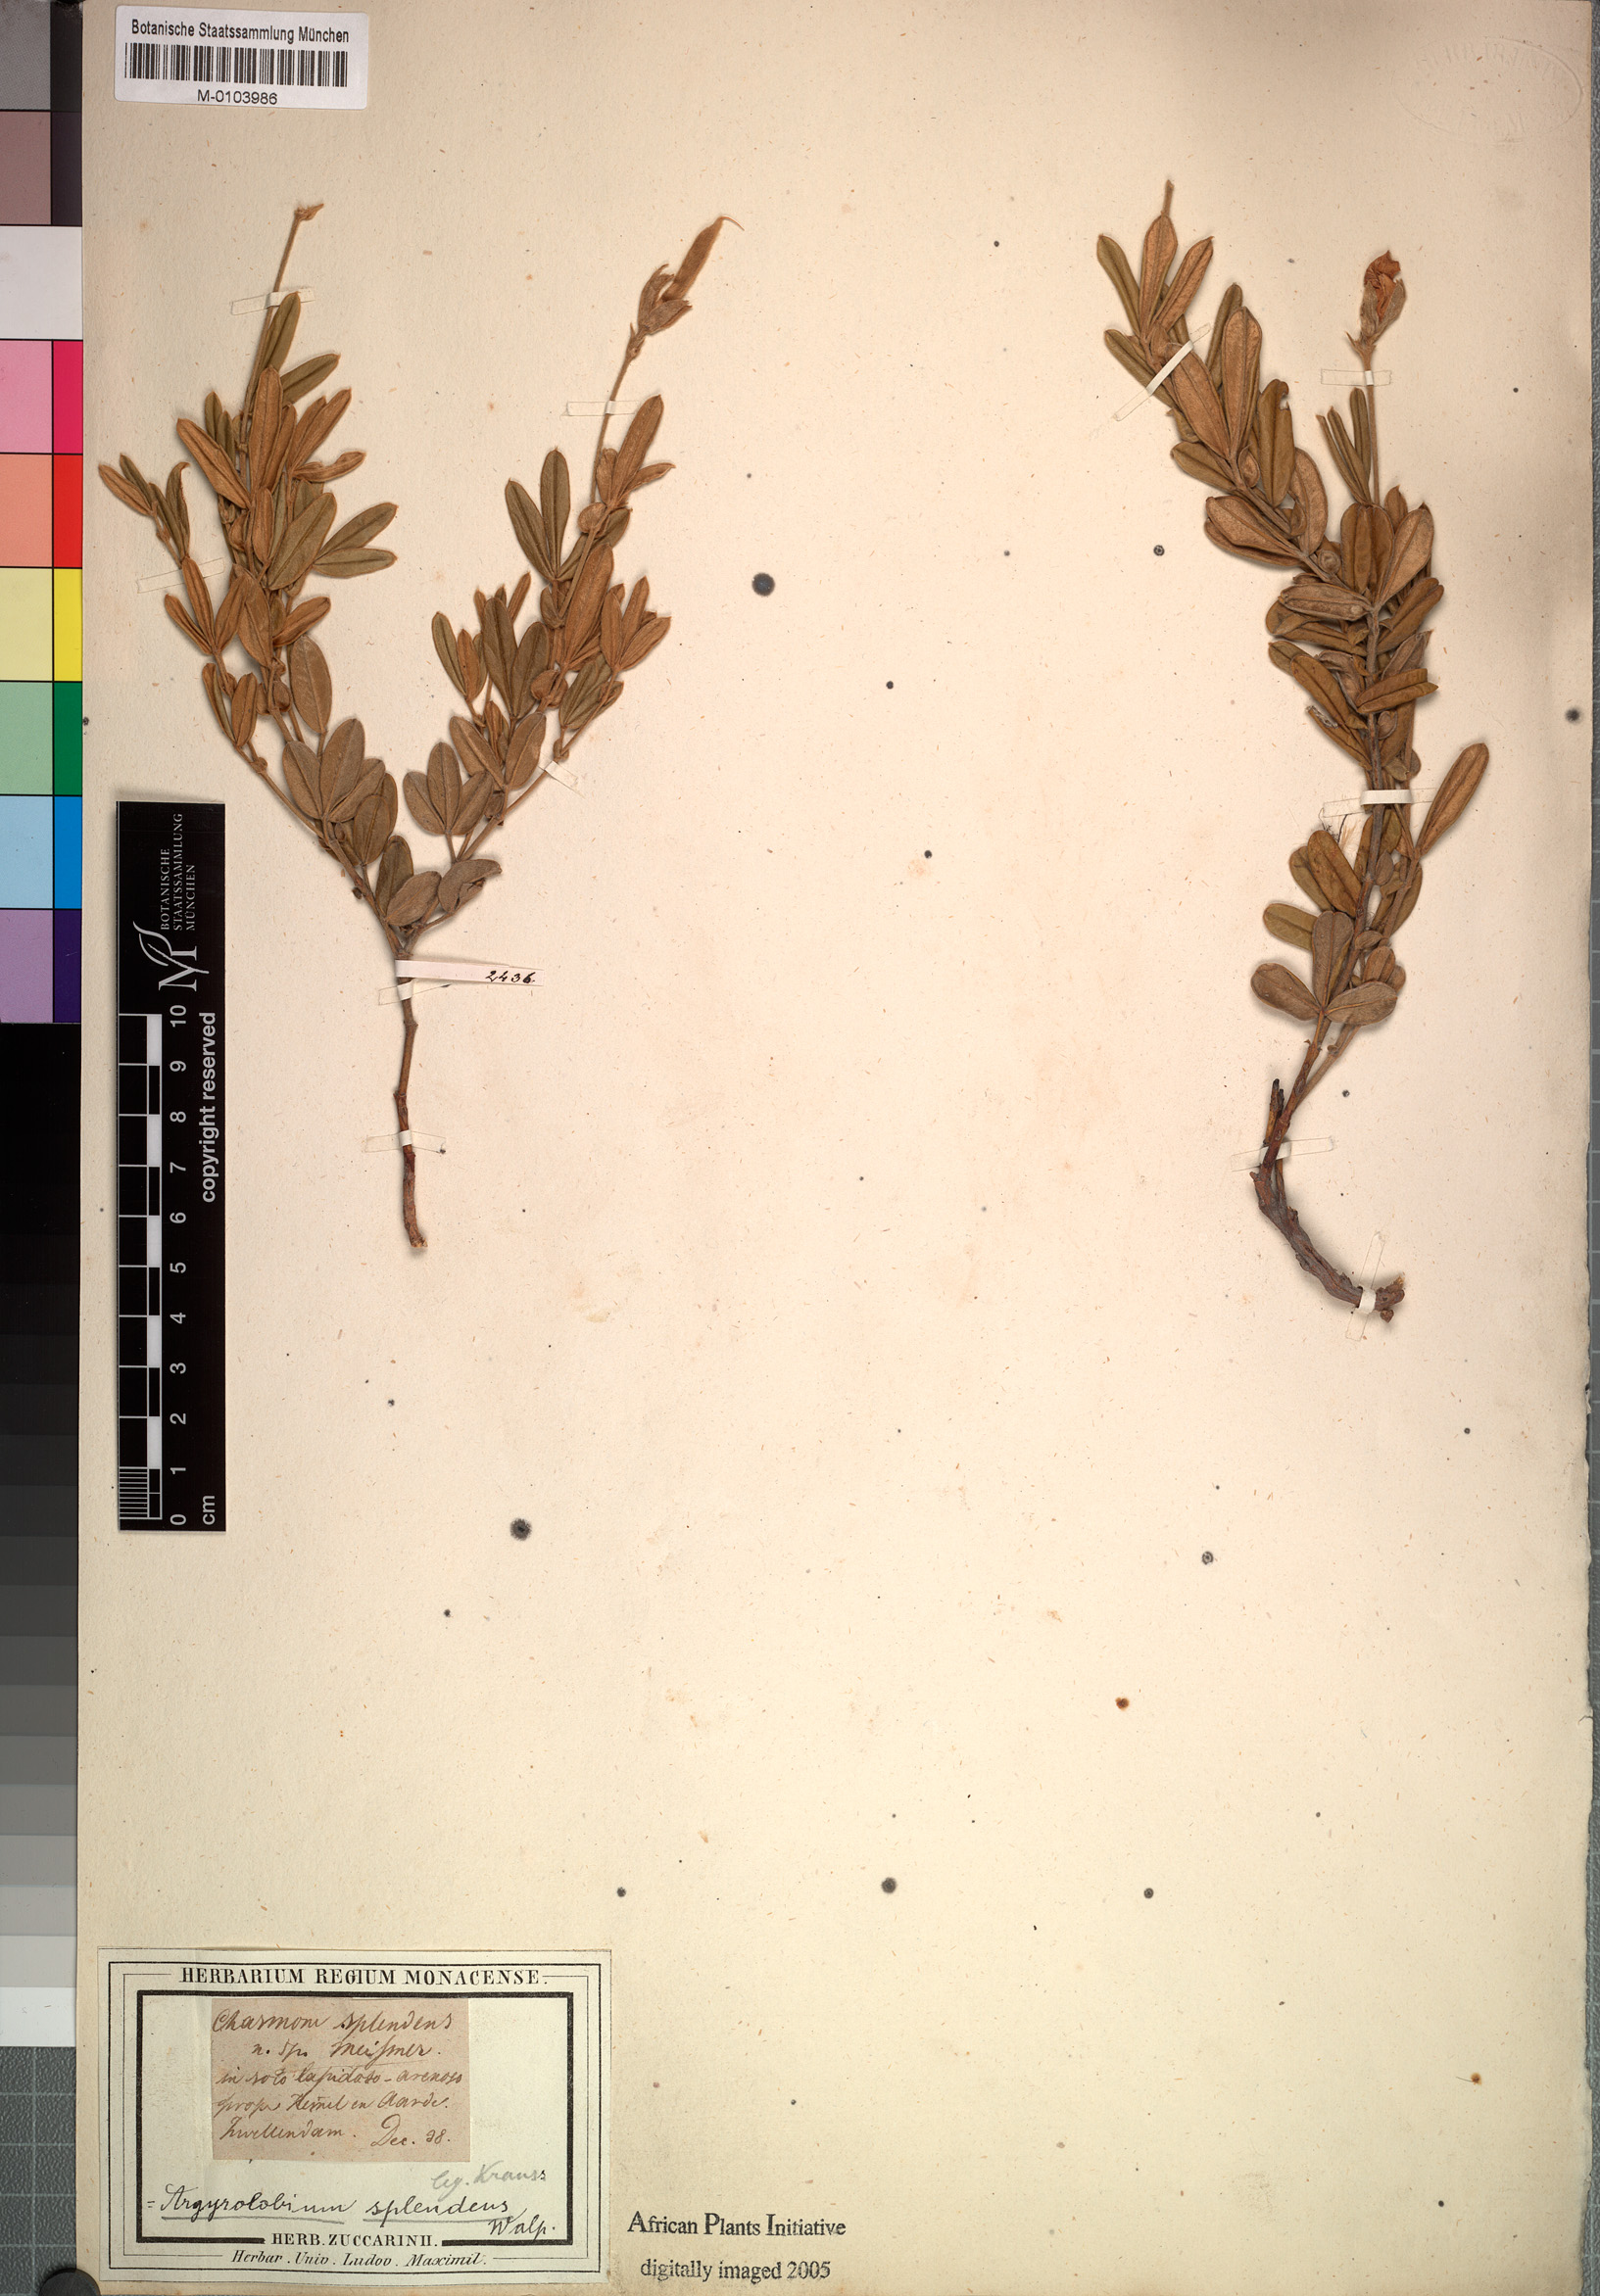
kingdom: Plantae
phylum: Tracheophyta
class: Magnoliopsida
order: Fabales
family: Fabaceae
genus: Argyrolobium
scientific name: Argyrolobium splendens
